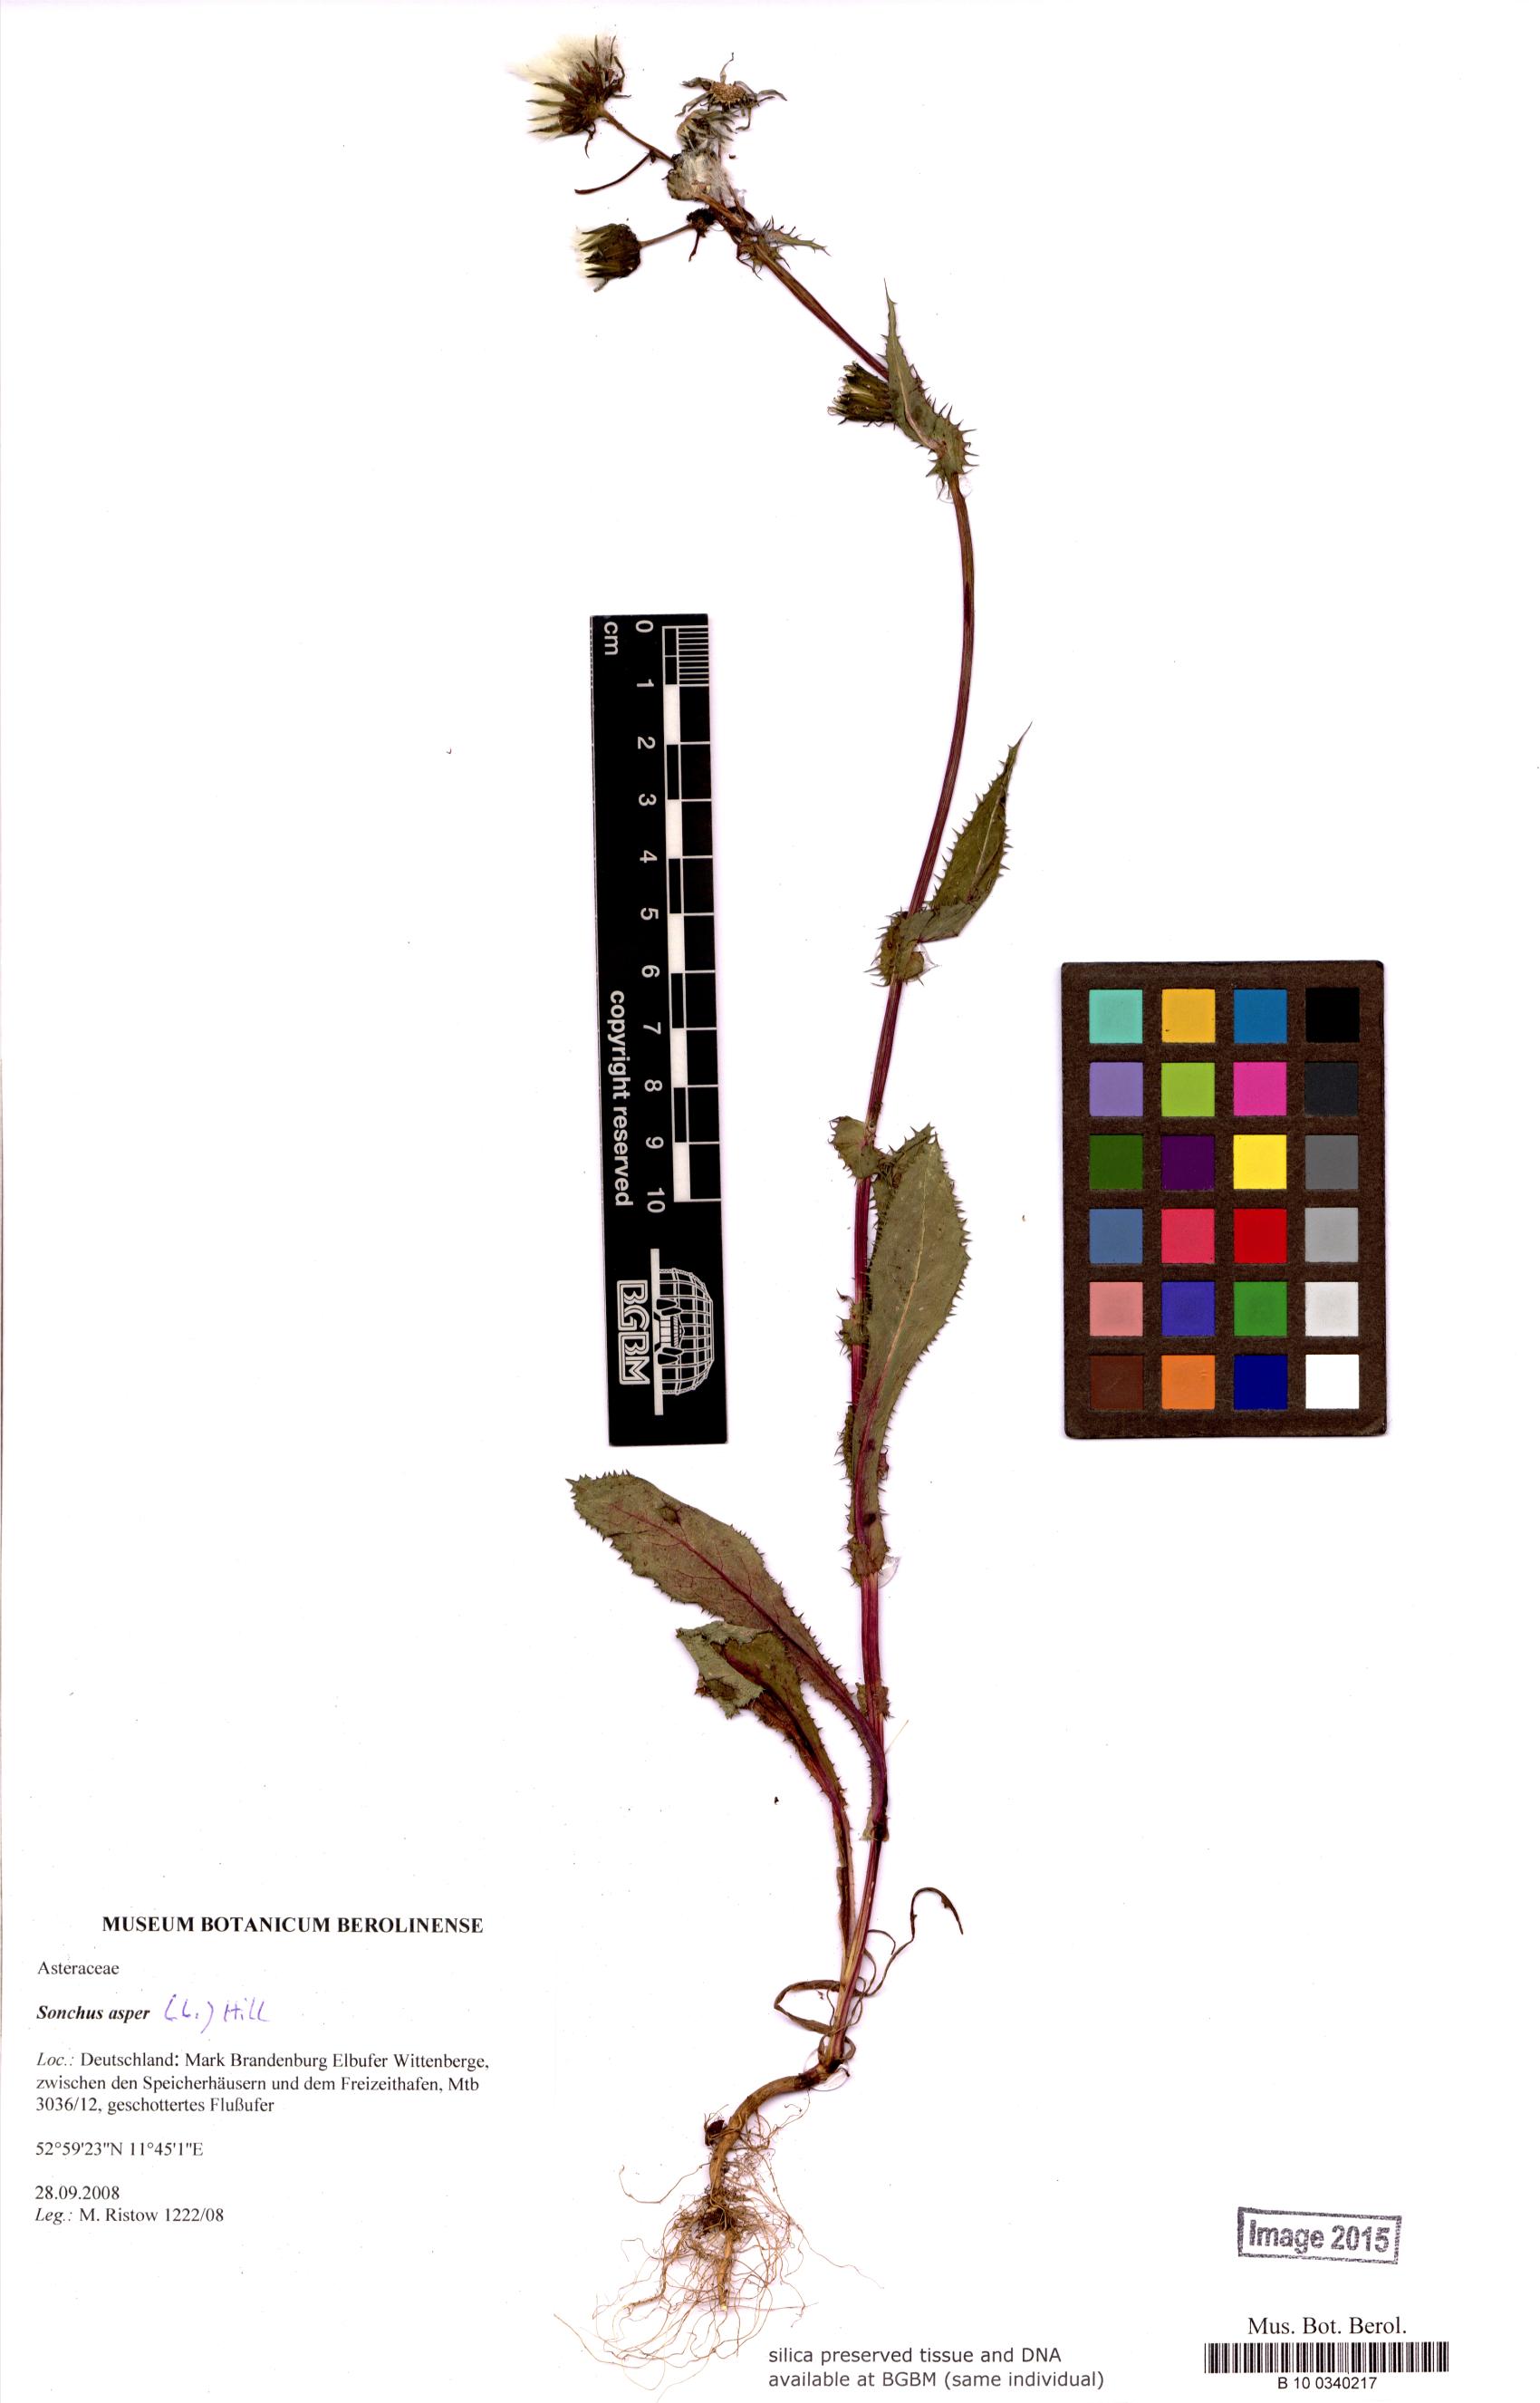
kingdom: Plantae
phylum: Tracheophyta
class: Magnoliopsida
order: Asterales
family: Asteraceae
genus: Sonchus
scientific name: Sonchus asper
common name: Prickly sow-thistle
